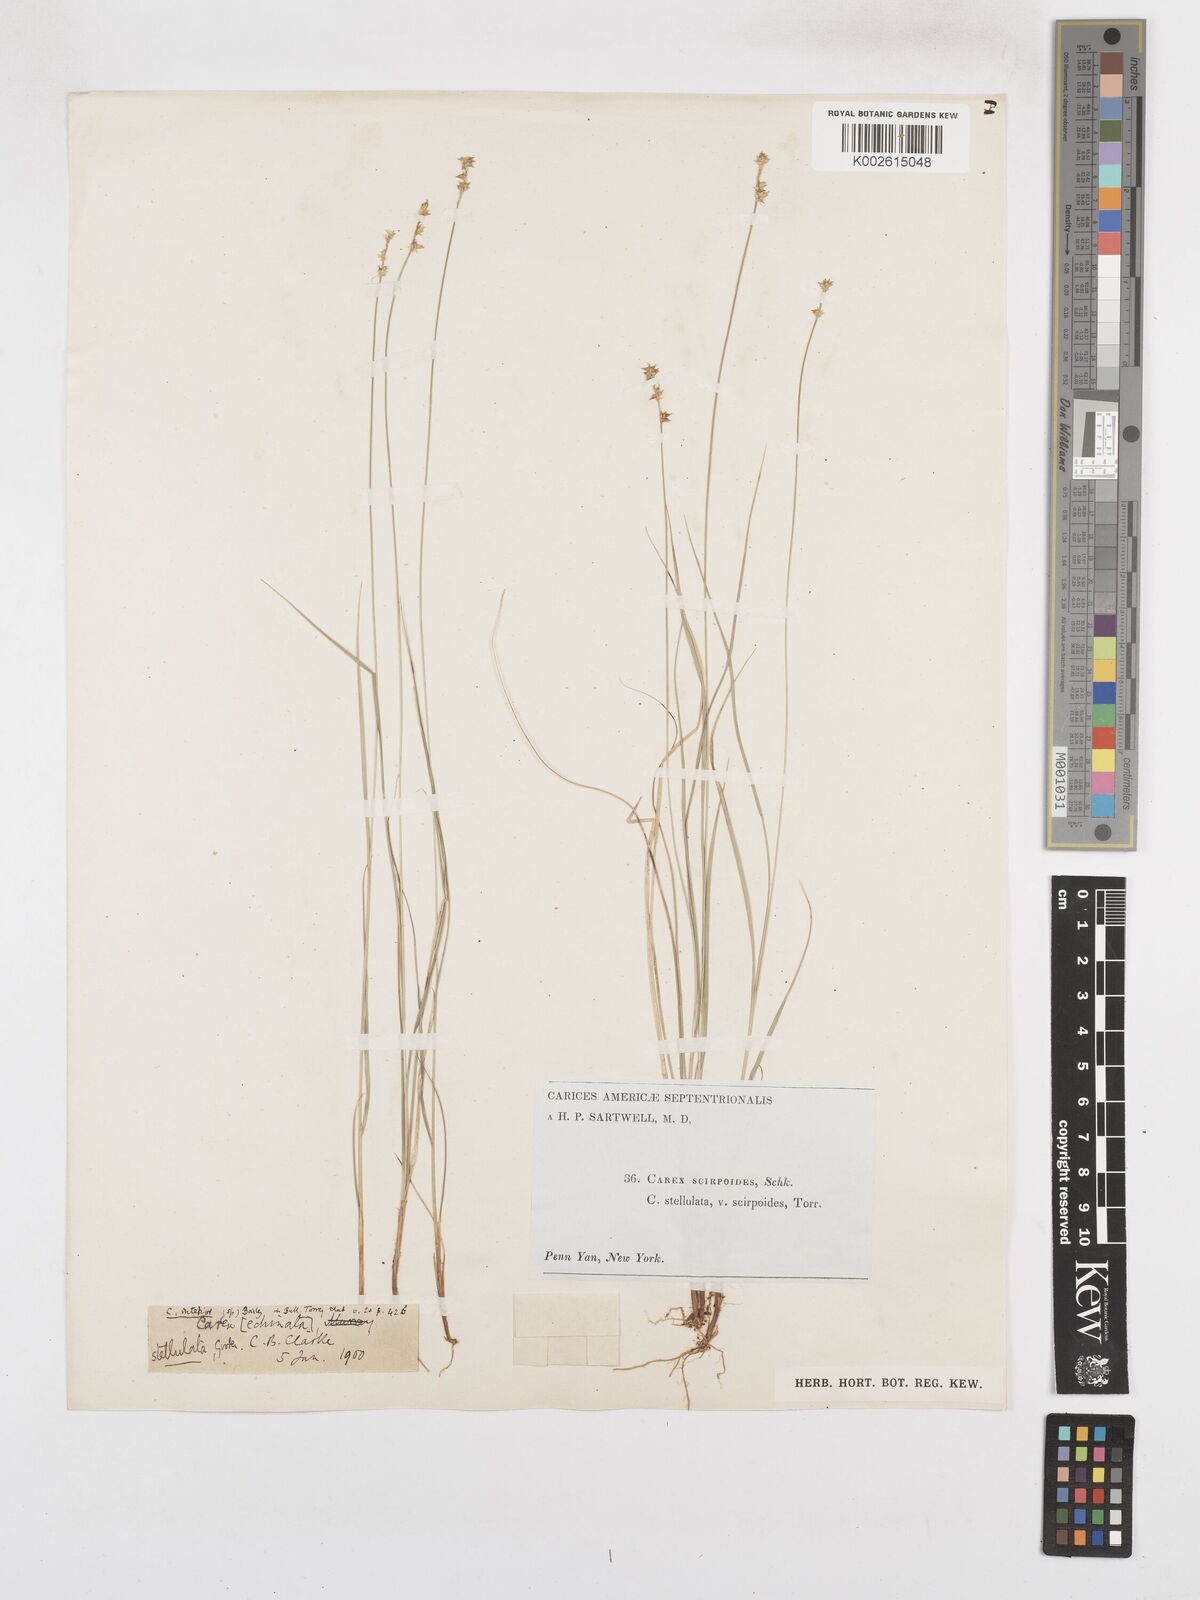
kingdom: Plantae
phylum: Tracheophyta
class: Liliopsida
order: Poales
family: Cyperaceae
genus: Carex
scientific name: Carex atlantica
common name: Atlantic sedge
